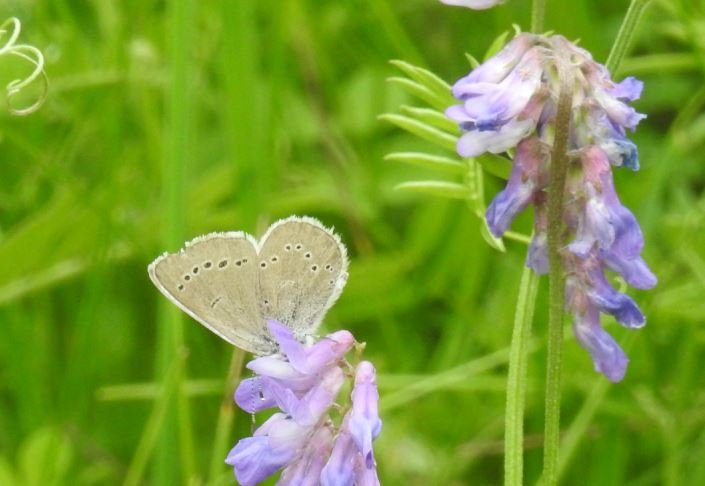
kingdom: Animalia
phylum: Arthropoda
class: Insecta
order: Lepidoptera
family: Lycaenidae
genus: Glaucopsyche
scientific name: Glaucopsyche lygdamus
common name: Silvery Blue
